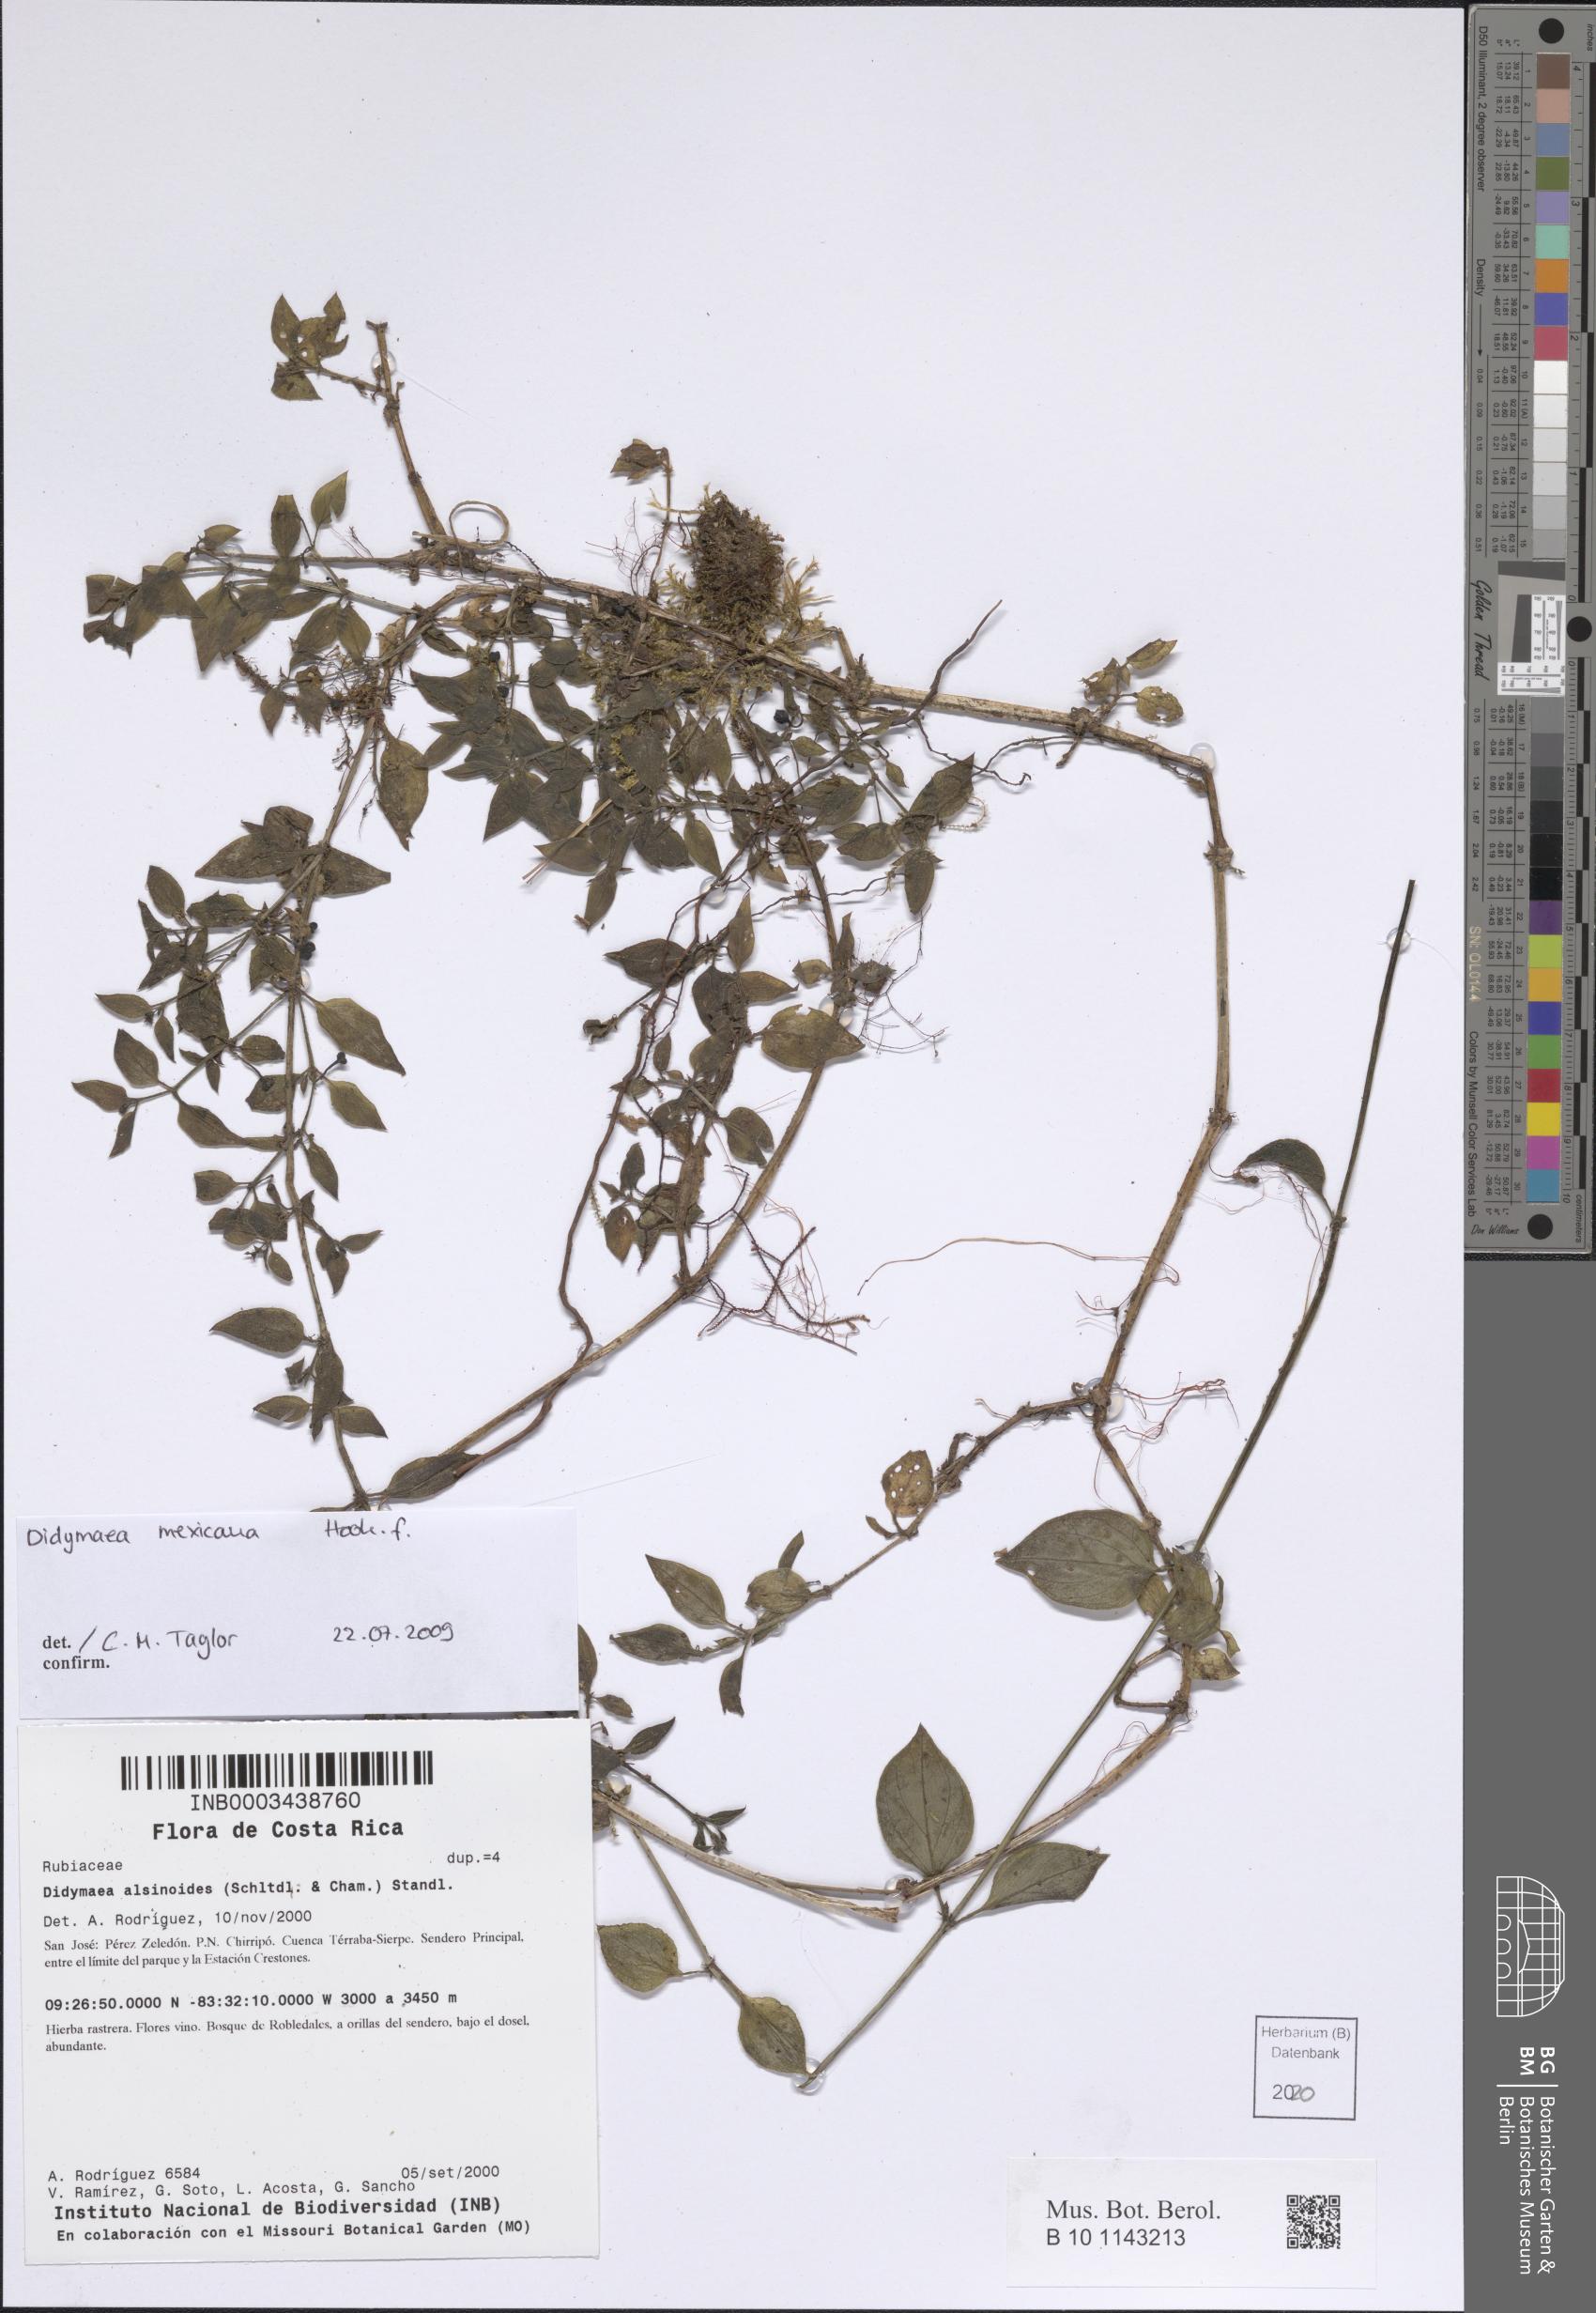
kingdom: Plantae
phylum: Tracheophyta
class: Magnoliopsida
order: Gentianales
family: Rubiaceae
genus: Didymaea
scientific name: Didymaea mexicana
